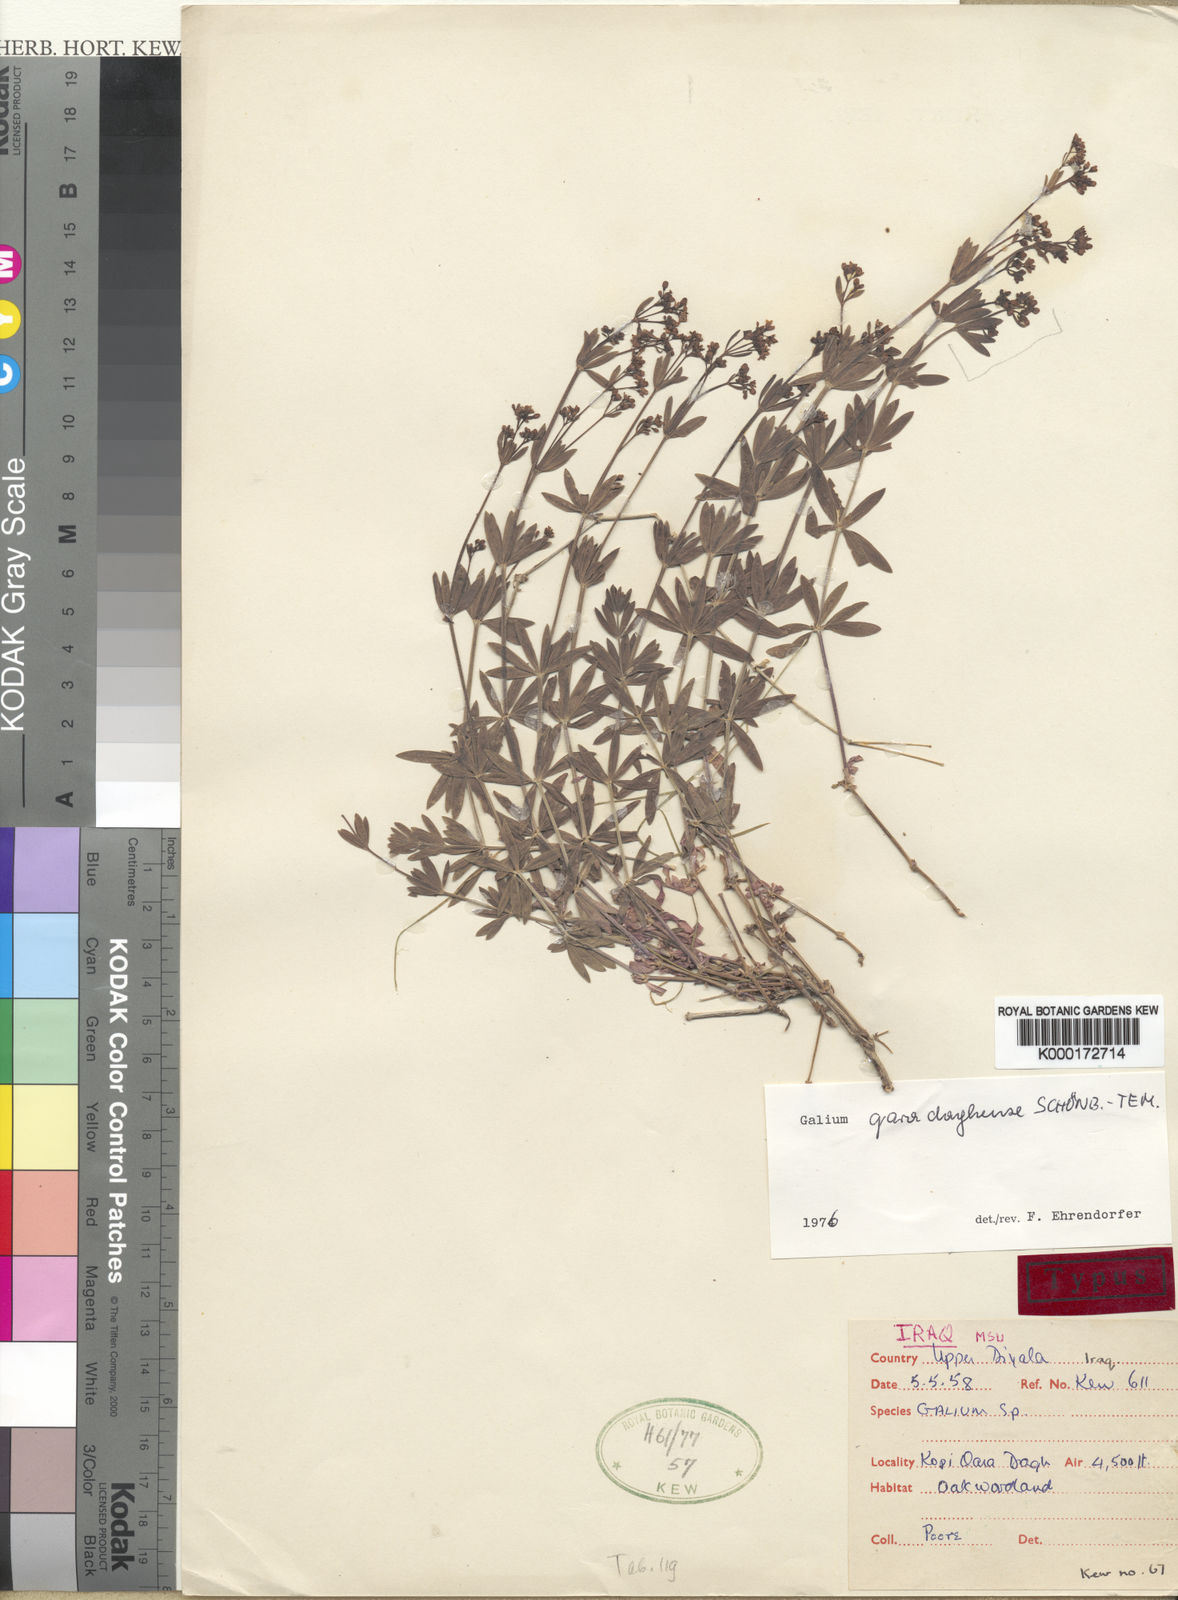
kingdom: Plantae
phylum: Tracheophyta
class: Magnoliopsida
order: Gentianales
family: Rubiaceae
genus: Galium
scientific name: Galium
